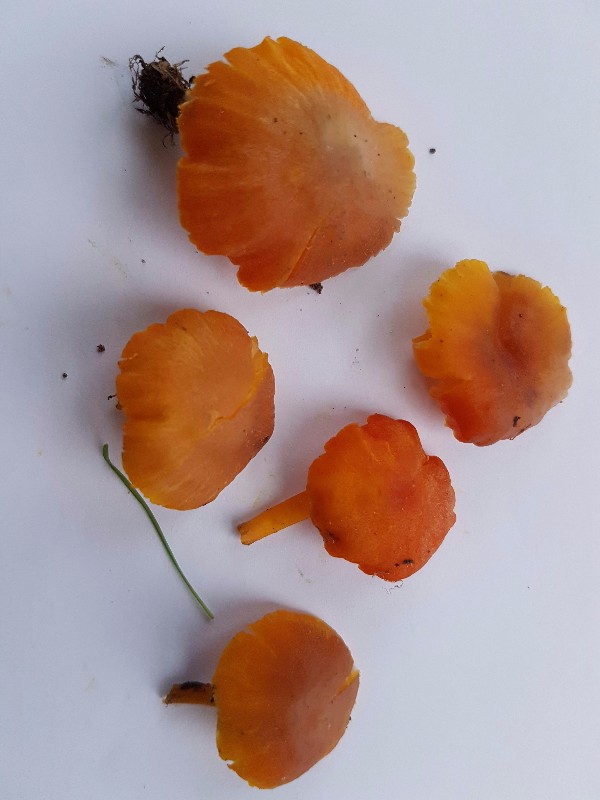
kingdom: Fungi
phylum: Basidiomycota
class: Agaricomycetes
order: Agaricales
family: Hygrophoraceae
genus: Hygrocybe
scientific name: Hygrocybe phaeococcinea
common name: sortdugget vokshat
